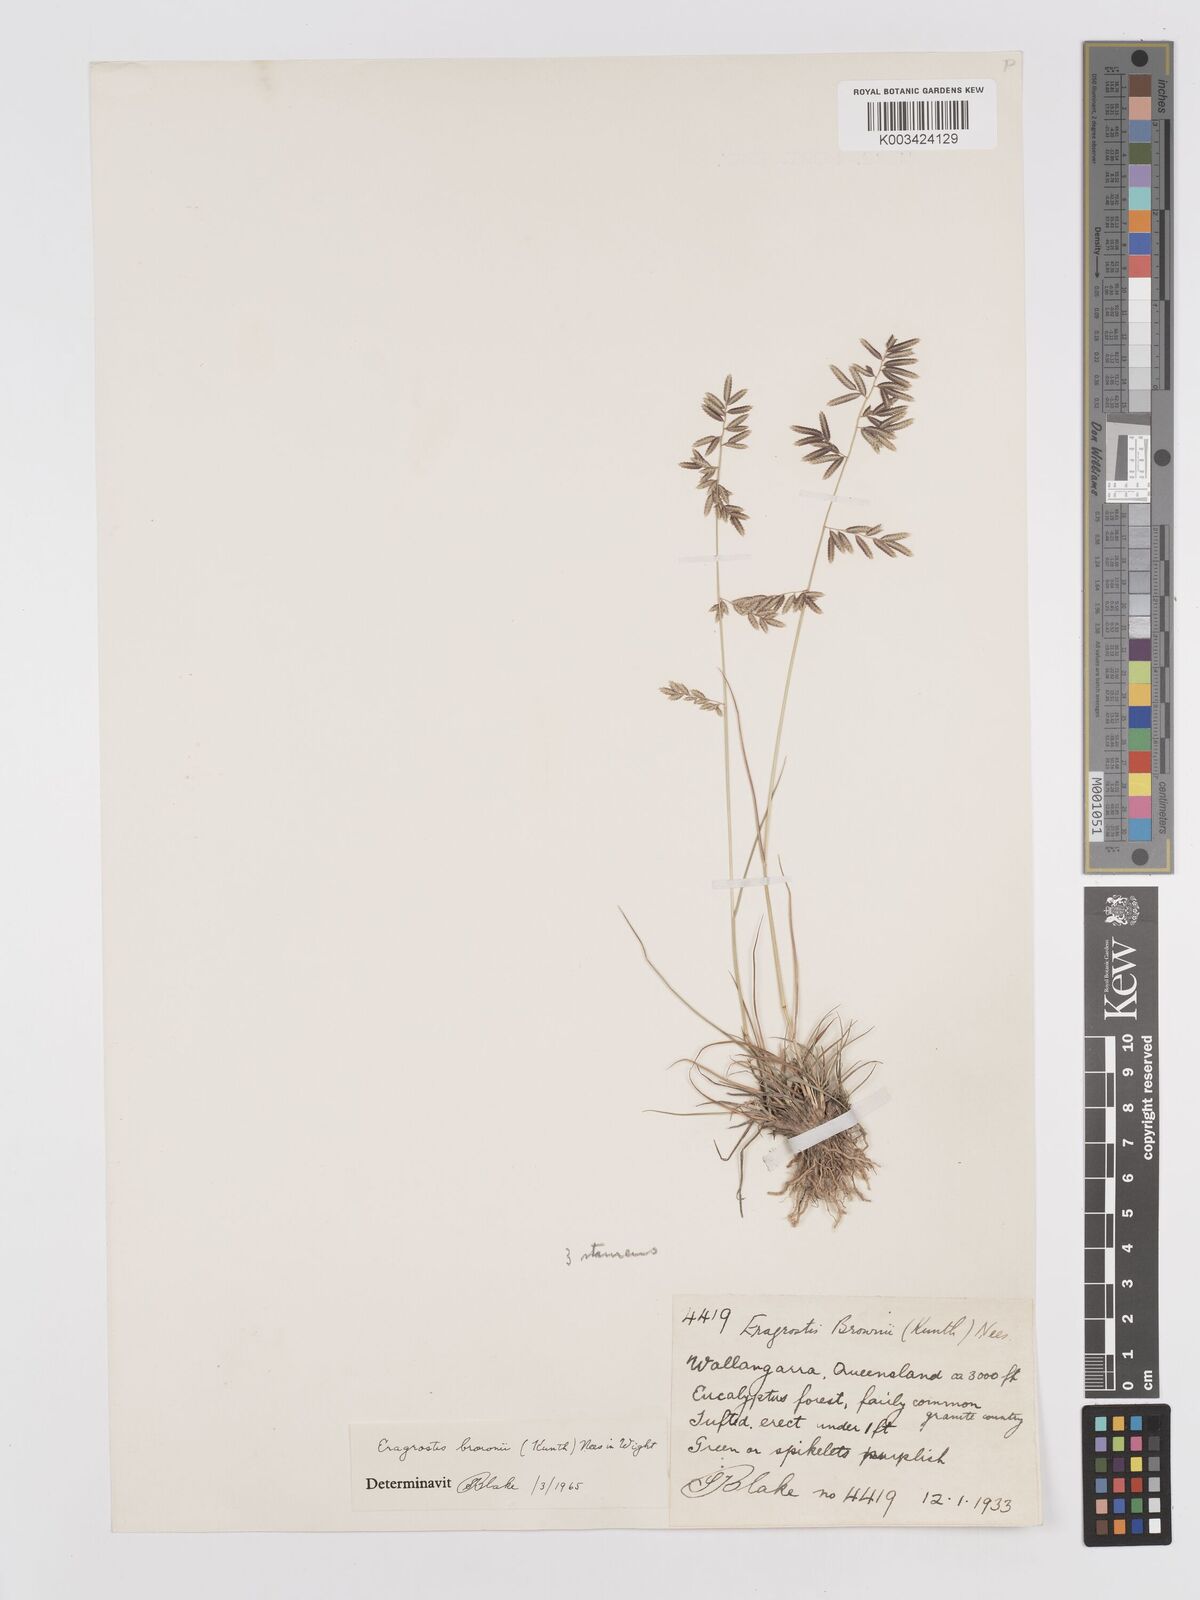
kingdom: Plantae
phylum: Tracheophyta
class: Liliopsida
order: Poales
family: Poaceae
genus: Eragrostis
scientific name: Eragrostis brownii
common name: Lovegrass
